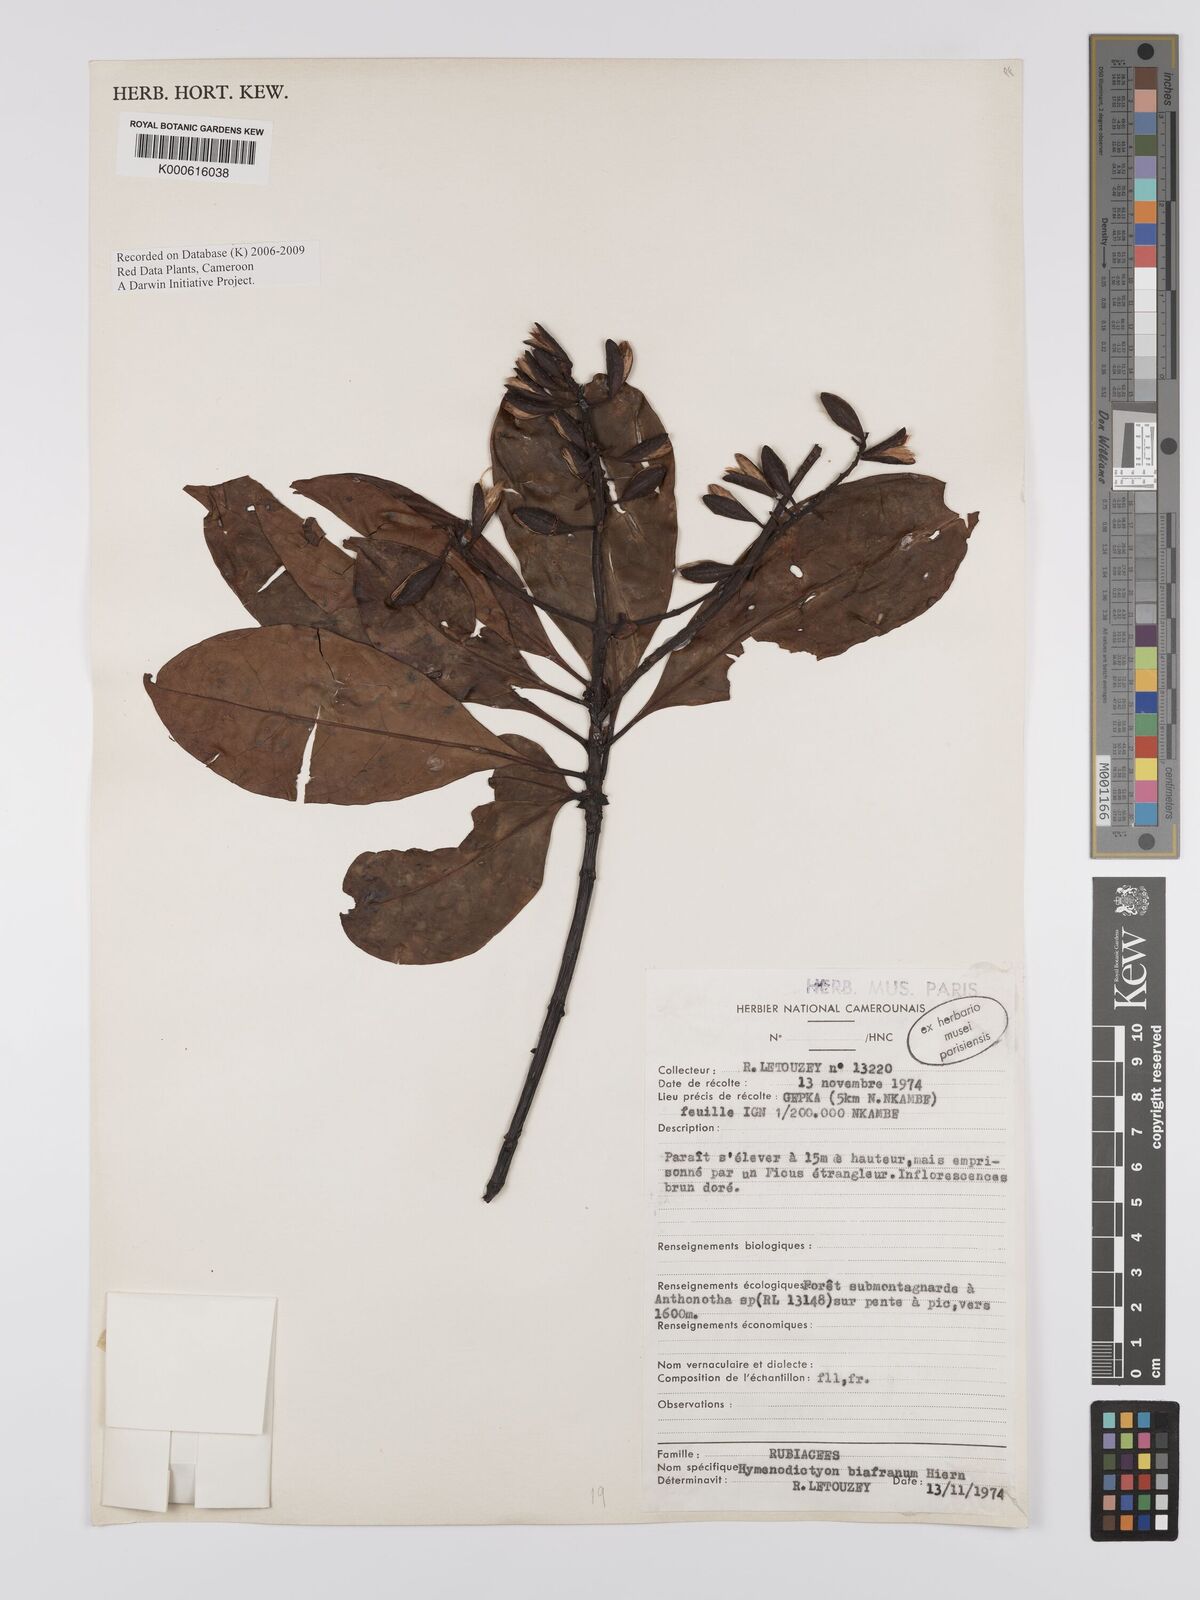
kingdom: Plantae
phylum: Tracheophyta
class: Magnoliopsida
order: Gentianales
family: Rubiaceae
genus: Hymenodictyon
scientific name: Hymenodictyon biafranum
